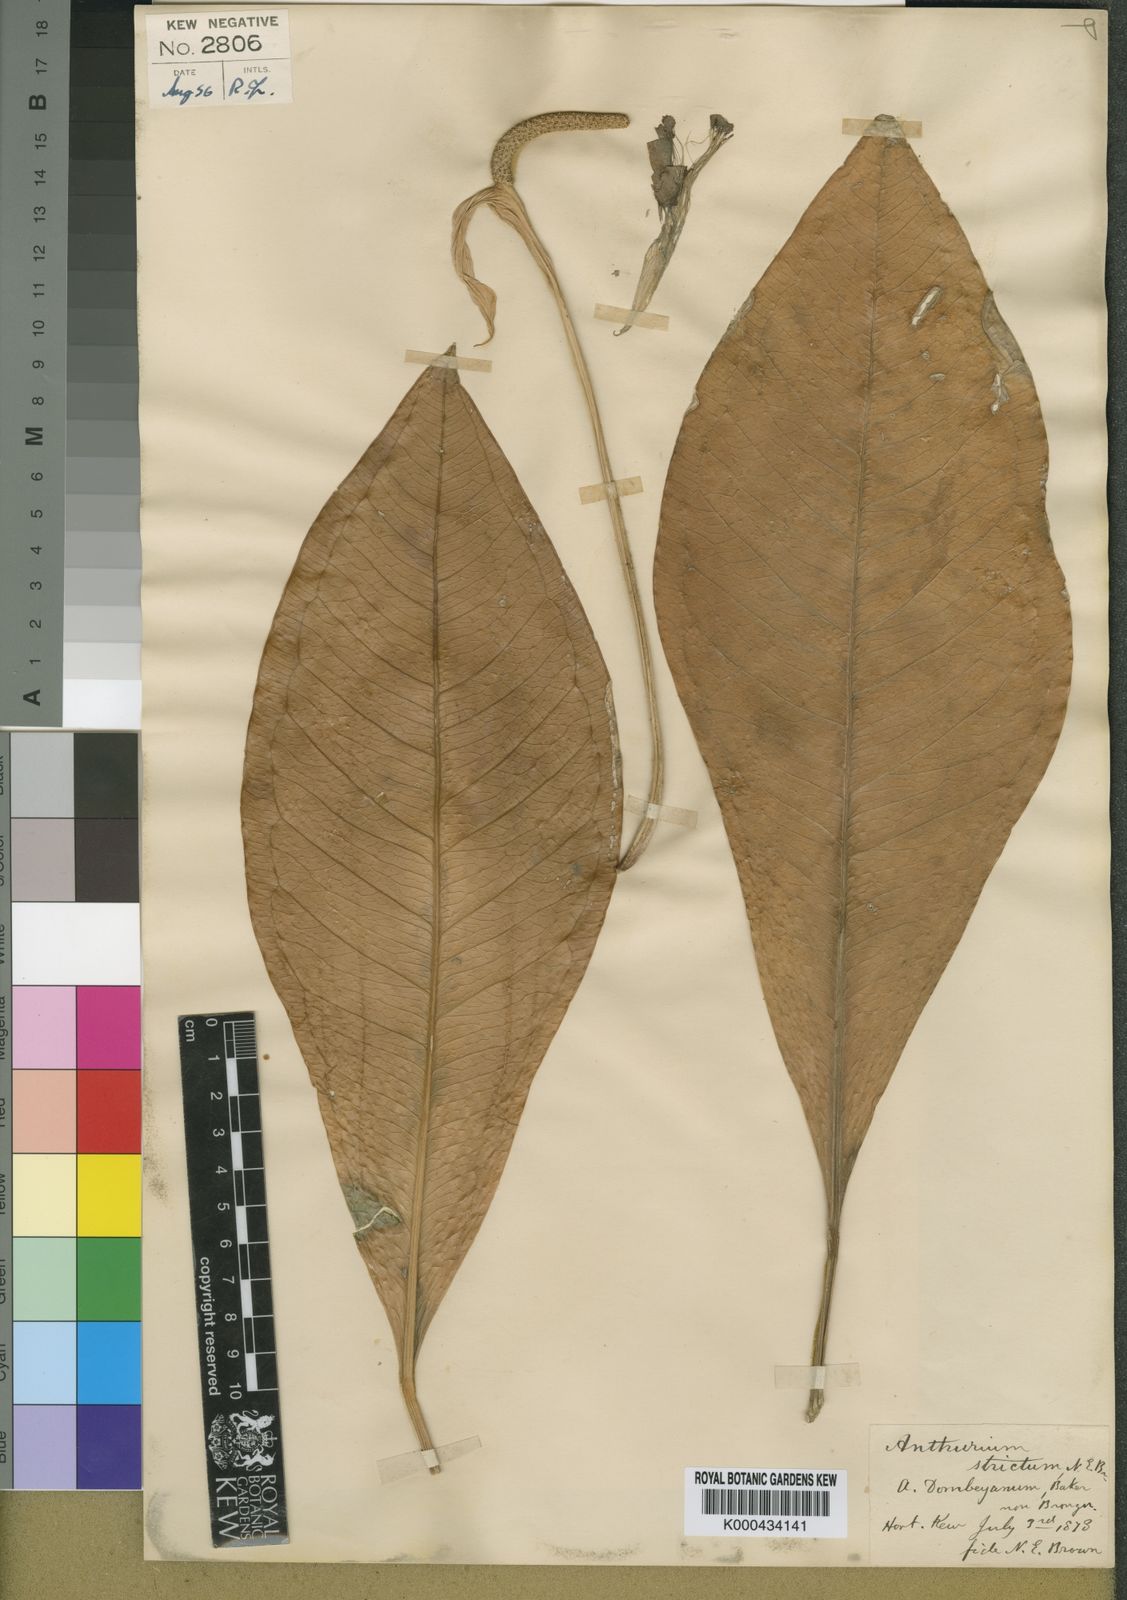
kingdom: Plantae
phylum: Tracheophyta
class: Liliopsida
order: Alismatales
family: Araceae
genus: Anthurium
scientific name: Anthurium dombeyanum
